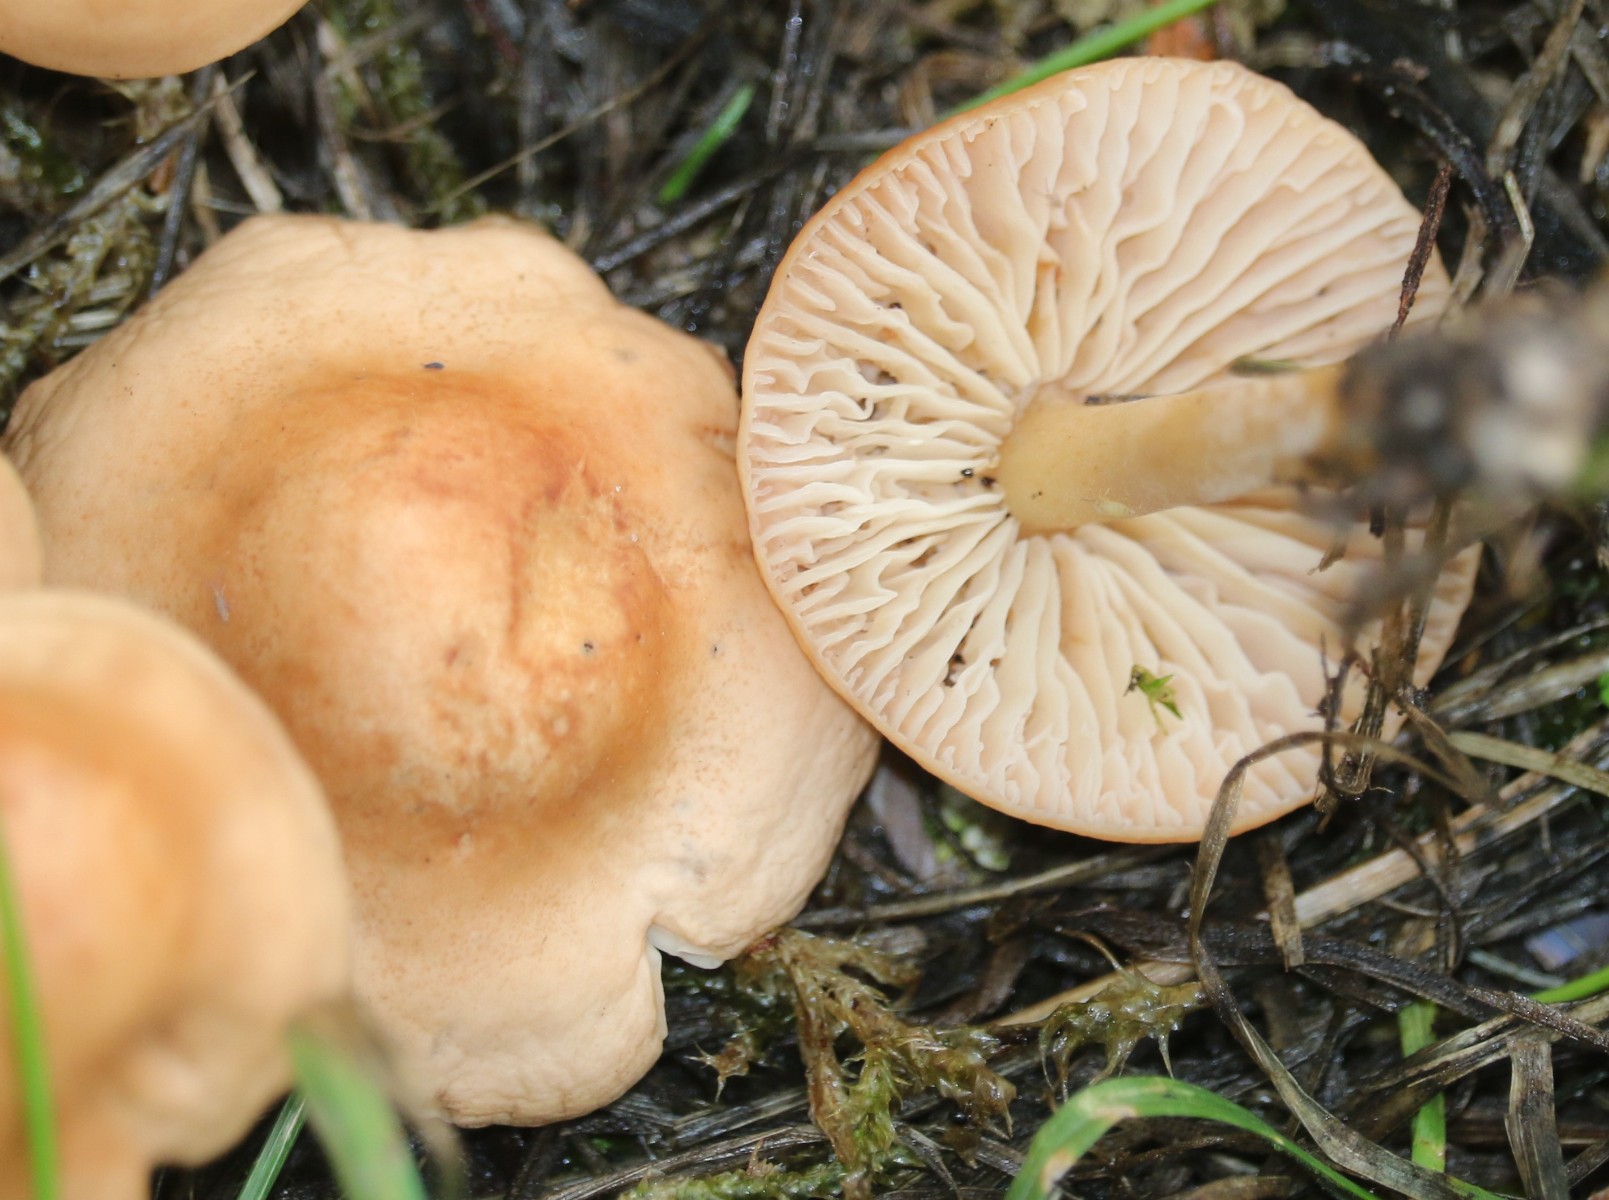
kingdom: Fungi
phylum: Basidiomycota
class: Agaricomycetes
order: Agaricales
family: Marasmiaceae
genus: Marasmius
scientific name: Marasmius oreades
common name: elledans-bruskhat
